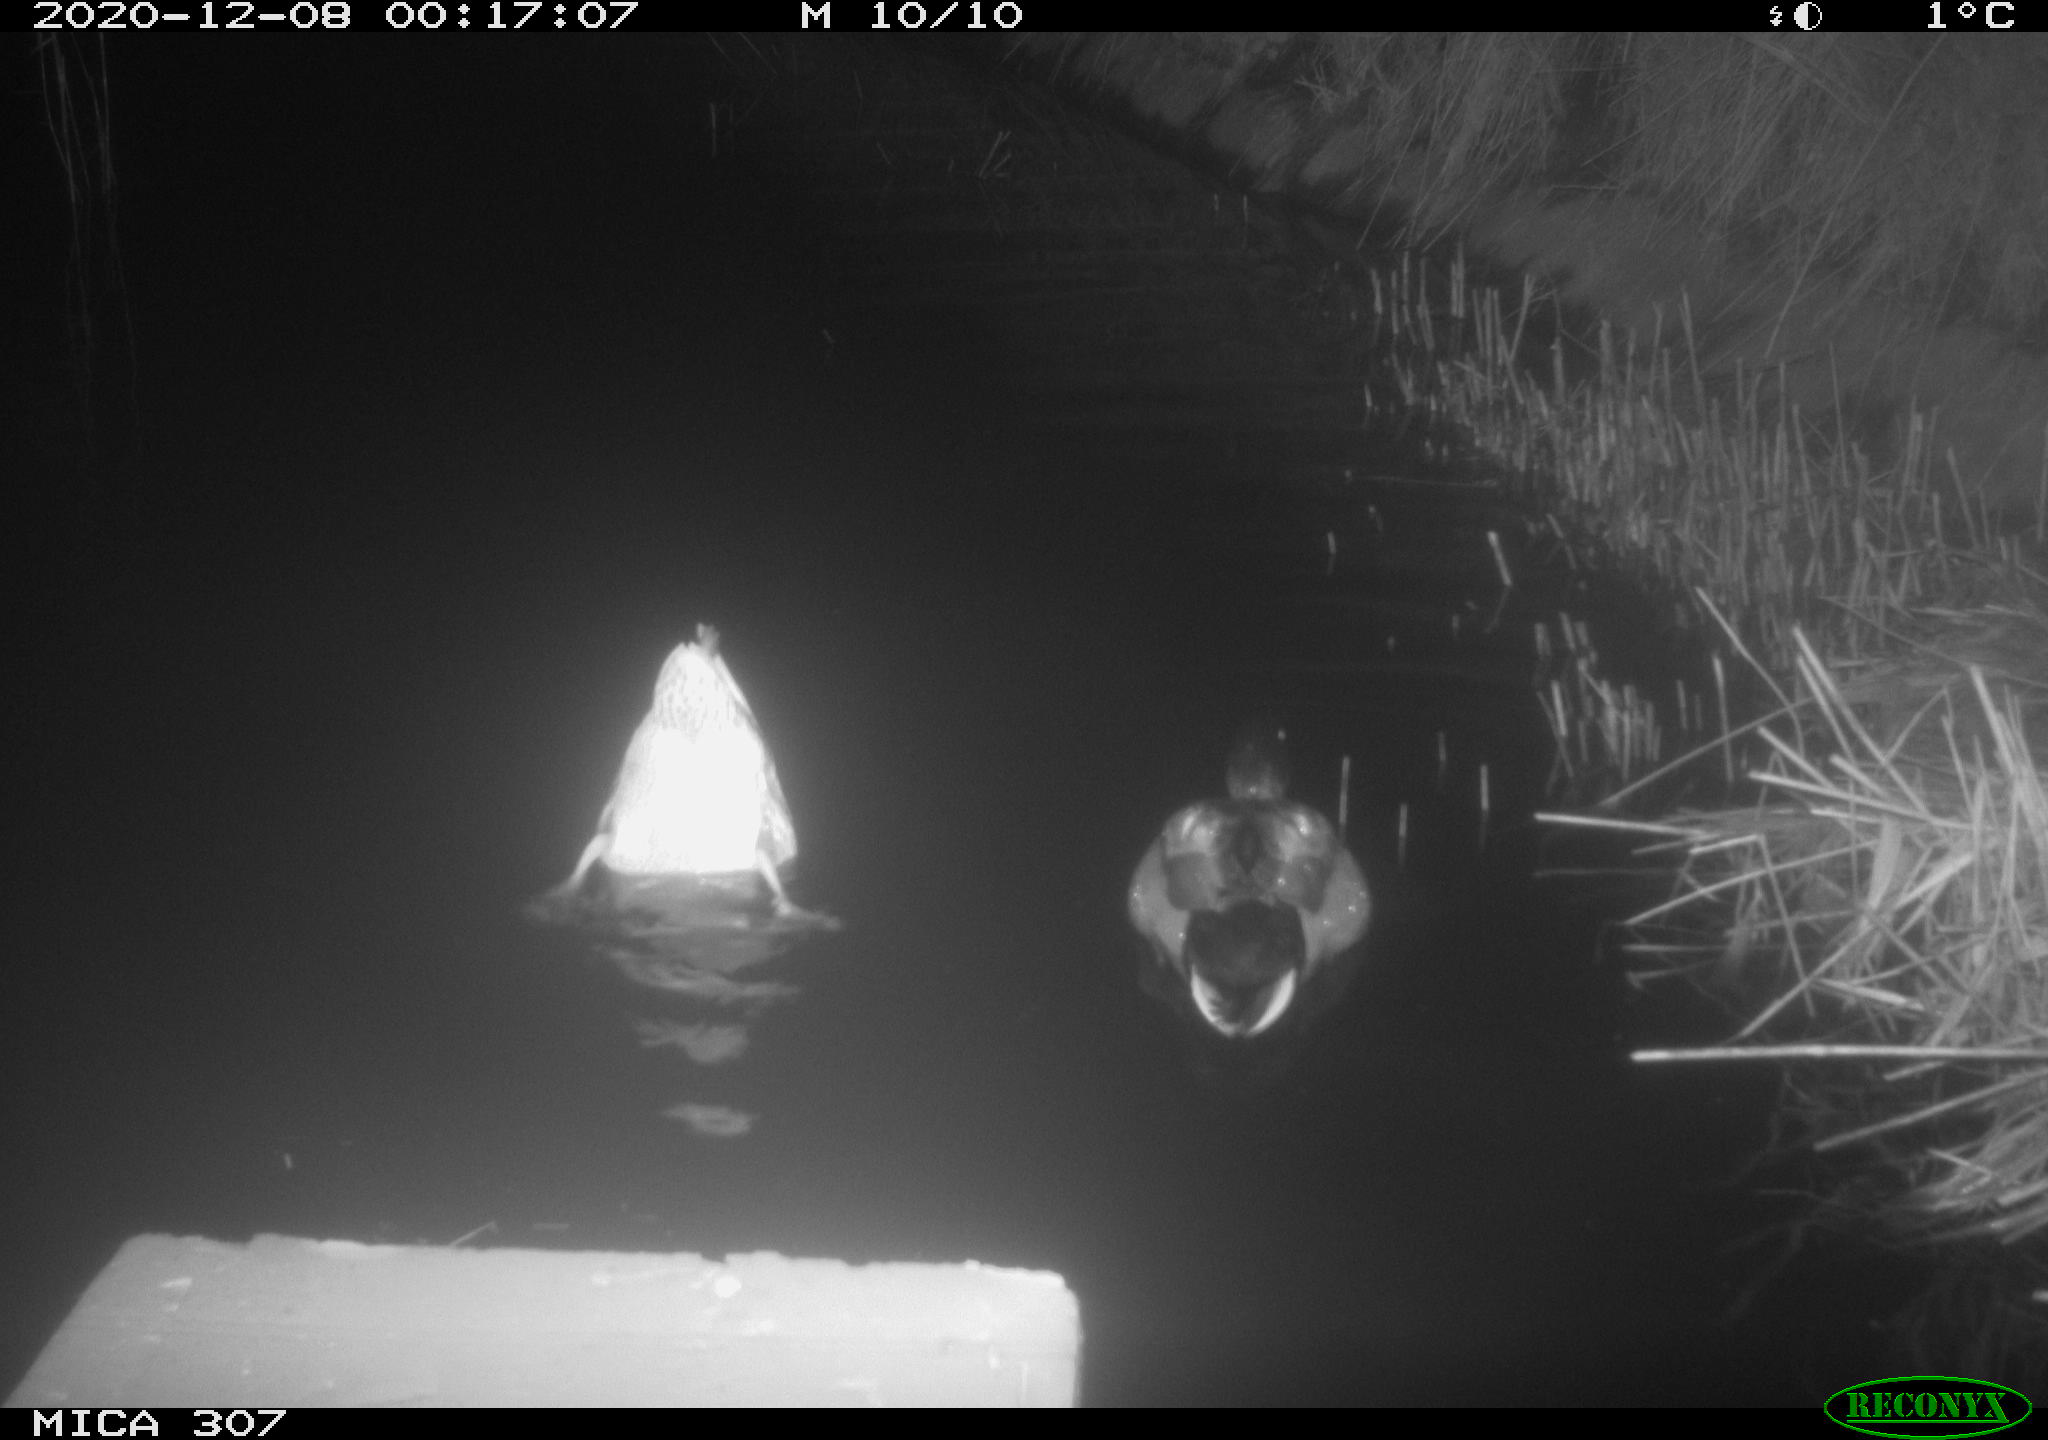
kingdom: Animalia
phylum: Chordata
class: Aves
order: Anseriformes
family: Anatidae
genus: Anas
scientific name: Anas platyrhynchos
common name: Mallard
